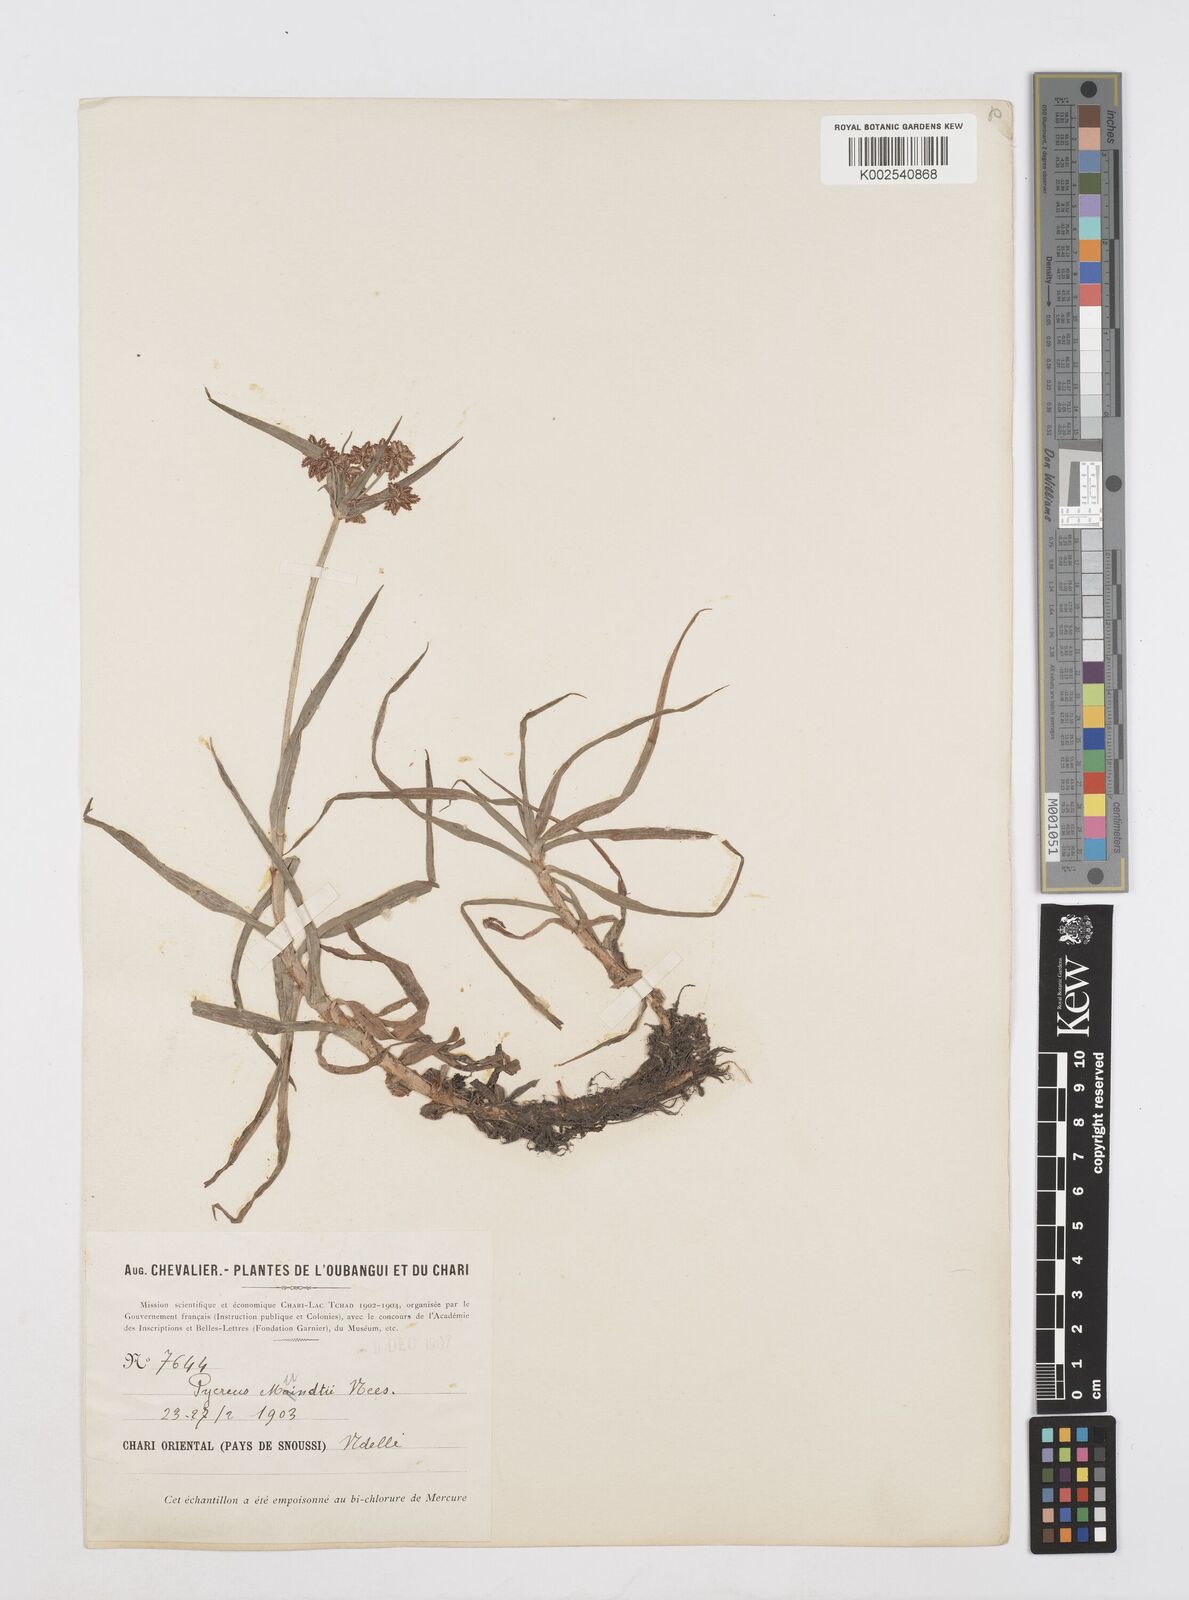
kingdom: Plantae
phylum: Tracheophyta
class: Liliopsida
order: Poales
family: Cyperaceae
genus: Cyperus
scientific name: Cyperus mundii
